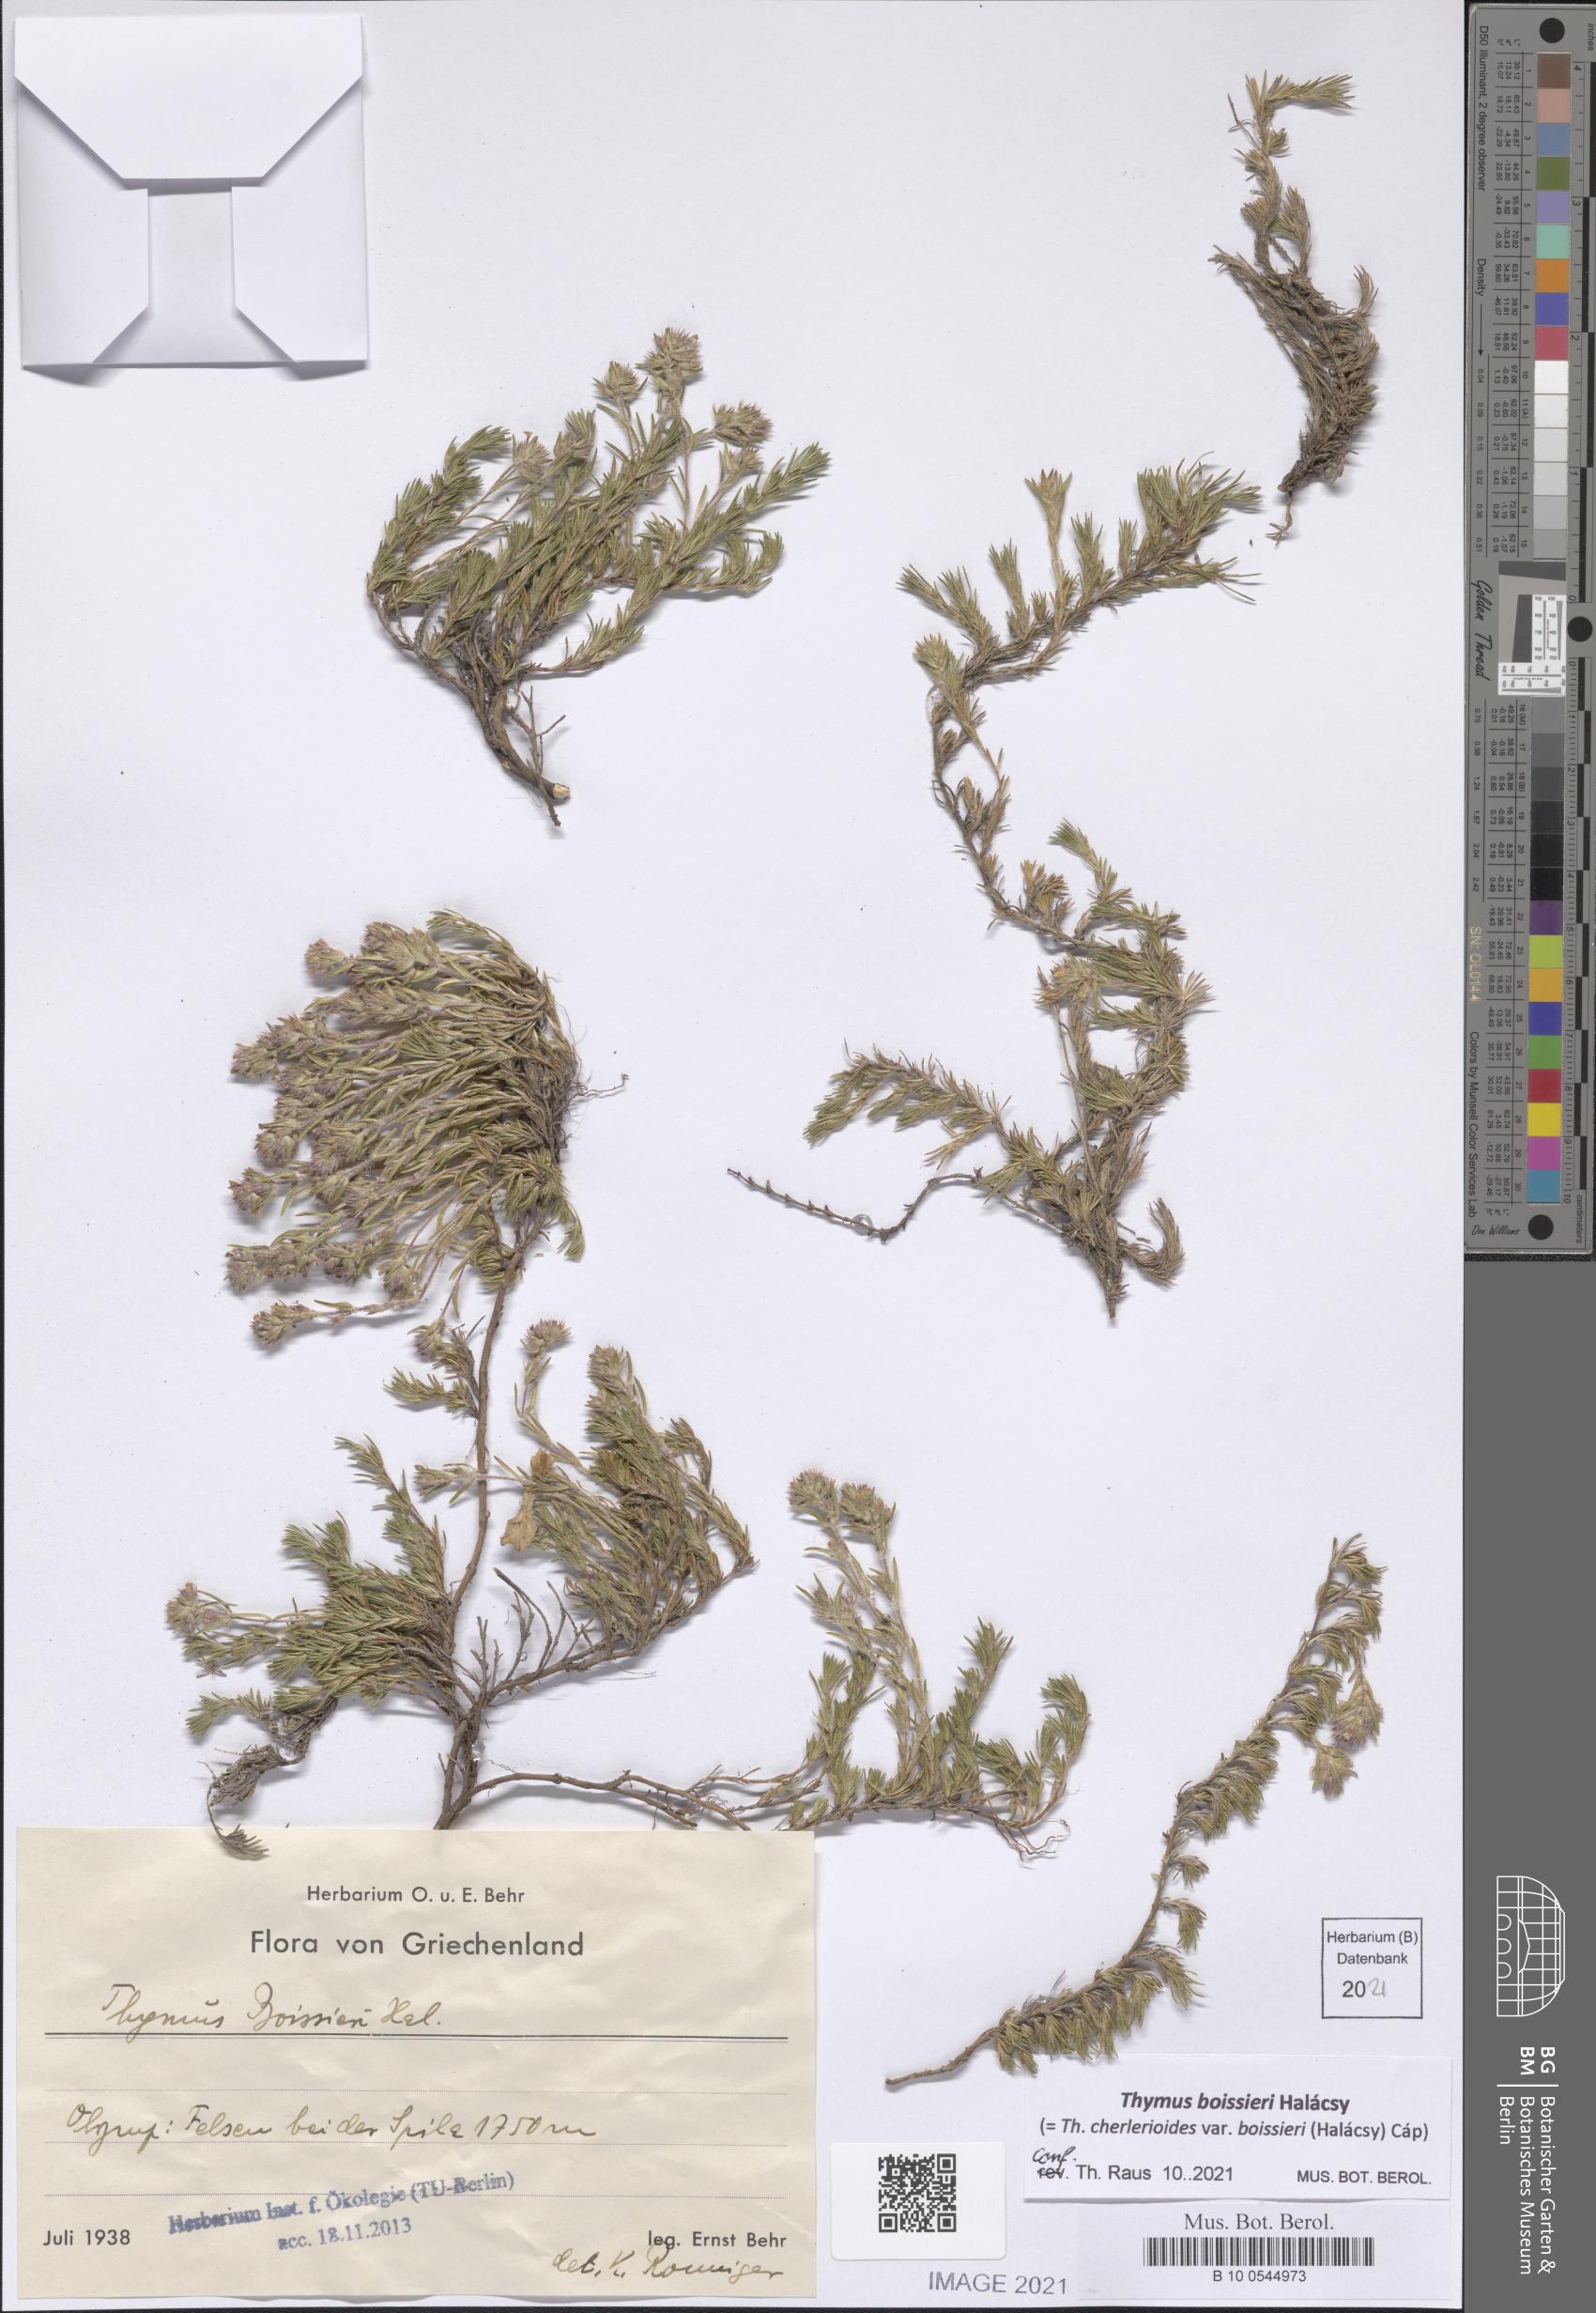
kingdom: Plantae
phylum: Tracheophyta
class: Magnoliopsida
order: Lamiales
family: Lamiaceae
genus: Thymus
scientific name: Thymus boissieri
